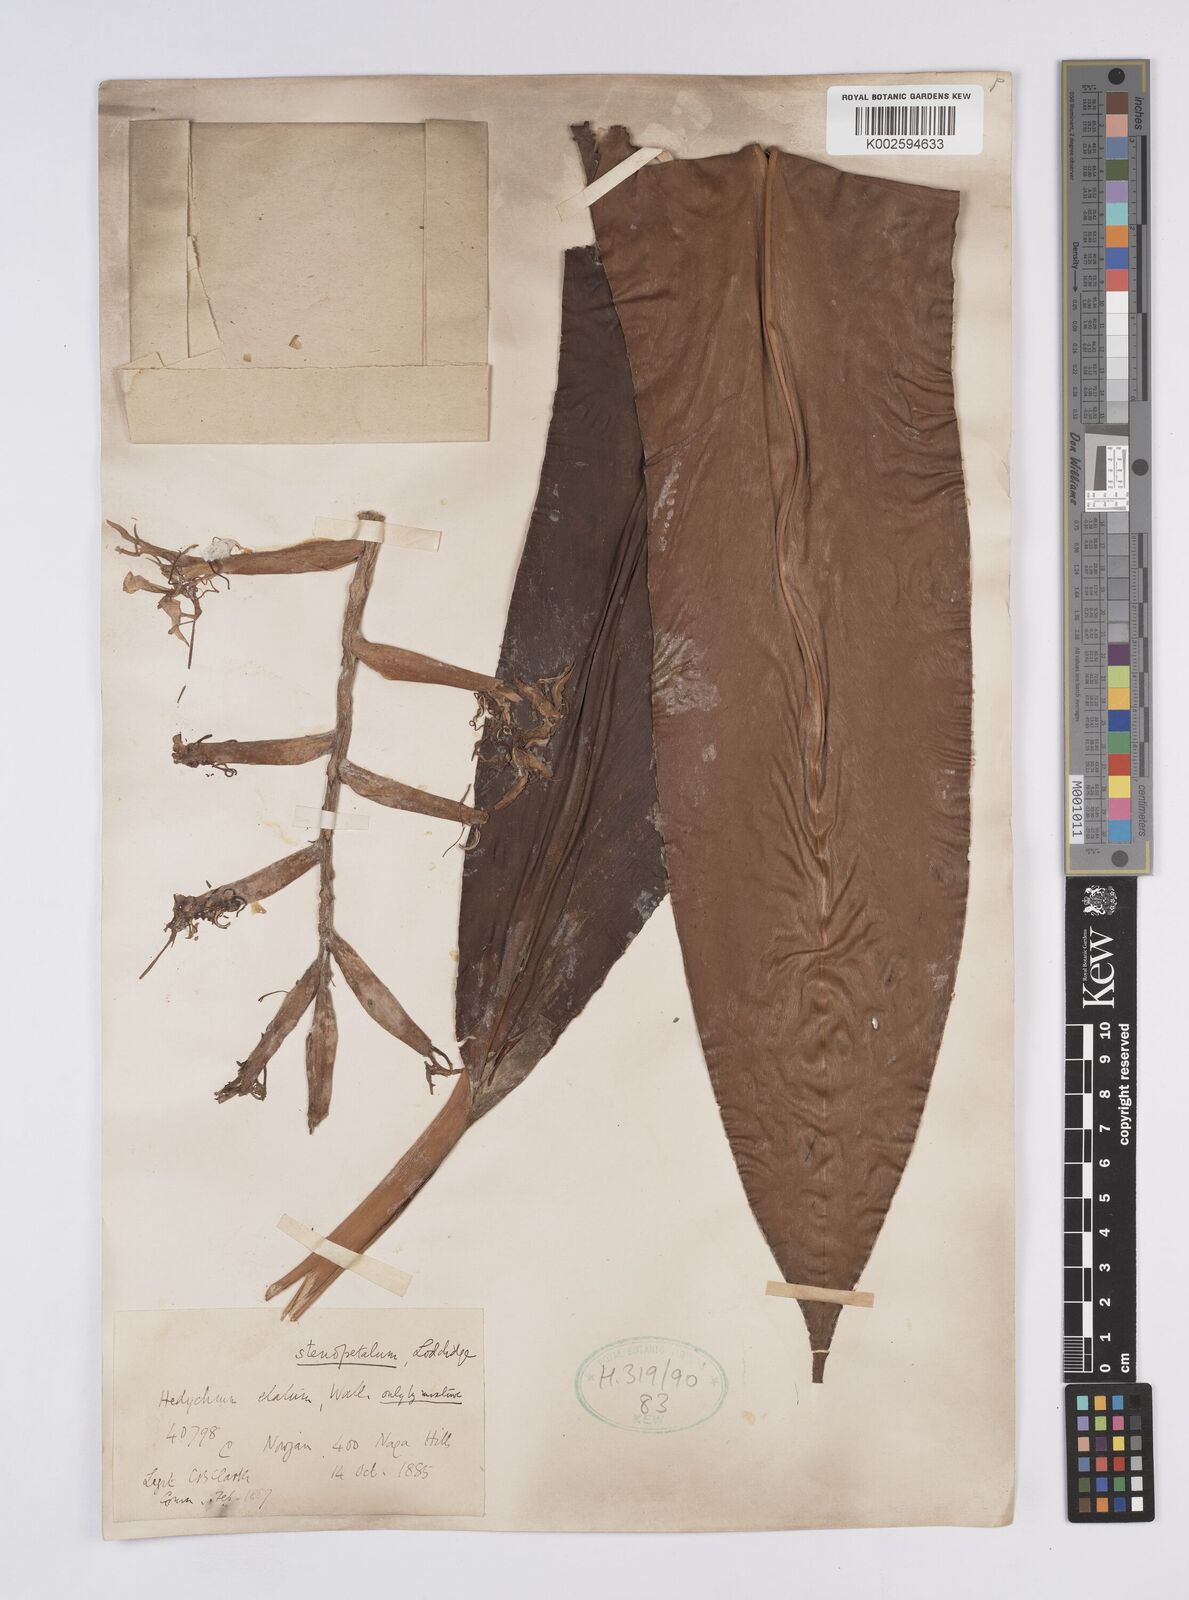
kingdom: Plantae
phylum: Tracheophyta
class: Liliopsida
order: Zingiberales
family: Zingiberaceae
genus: Hedychium
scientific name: Hedychium stenopetalum
